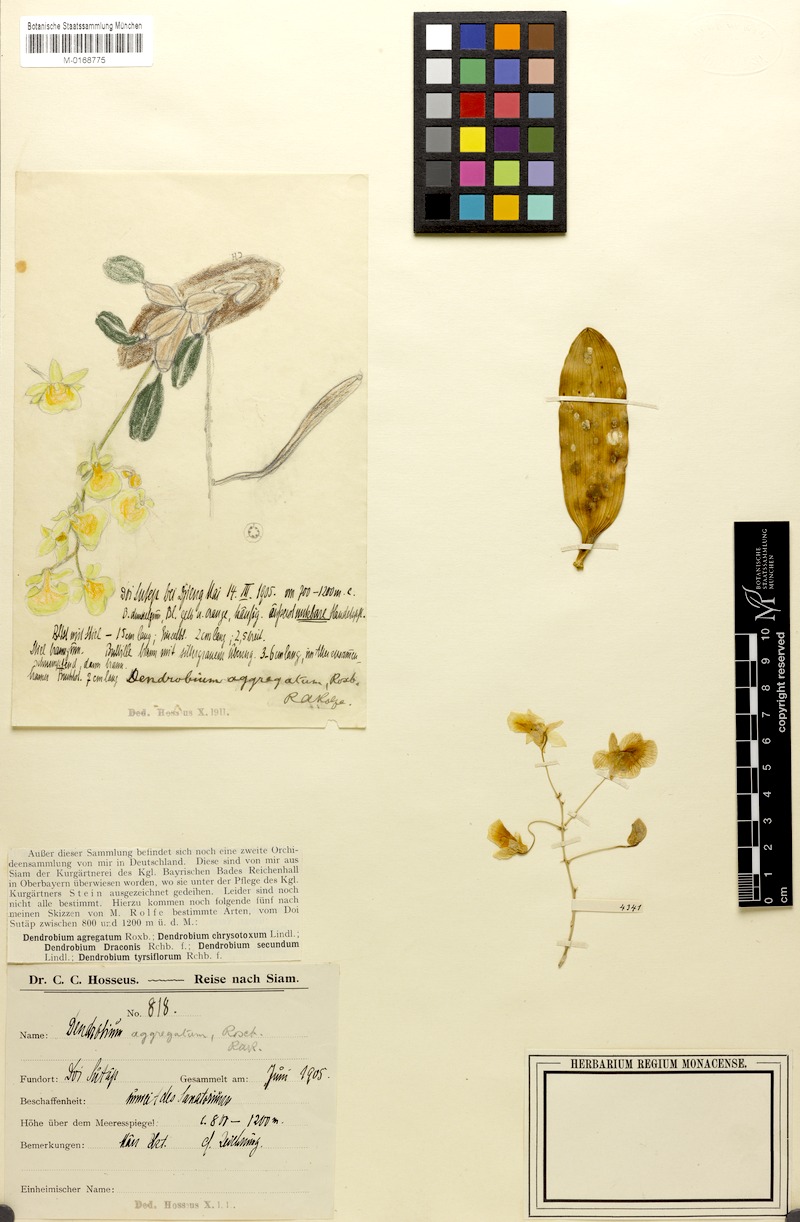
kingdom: Plantae
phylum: Tracheophyta
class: Liliopsida
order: Asparagales
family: Orchidaceae
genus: Dendrobium
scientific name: Dendrobium lindleyi
